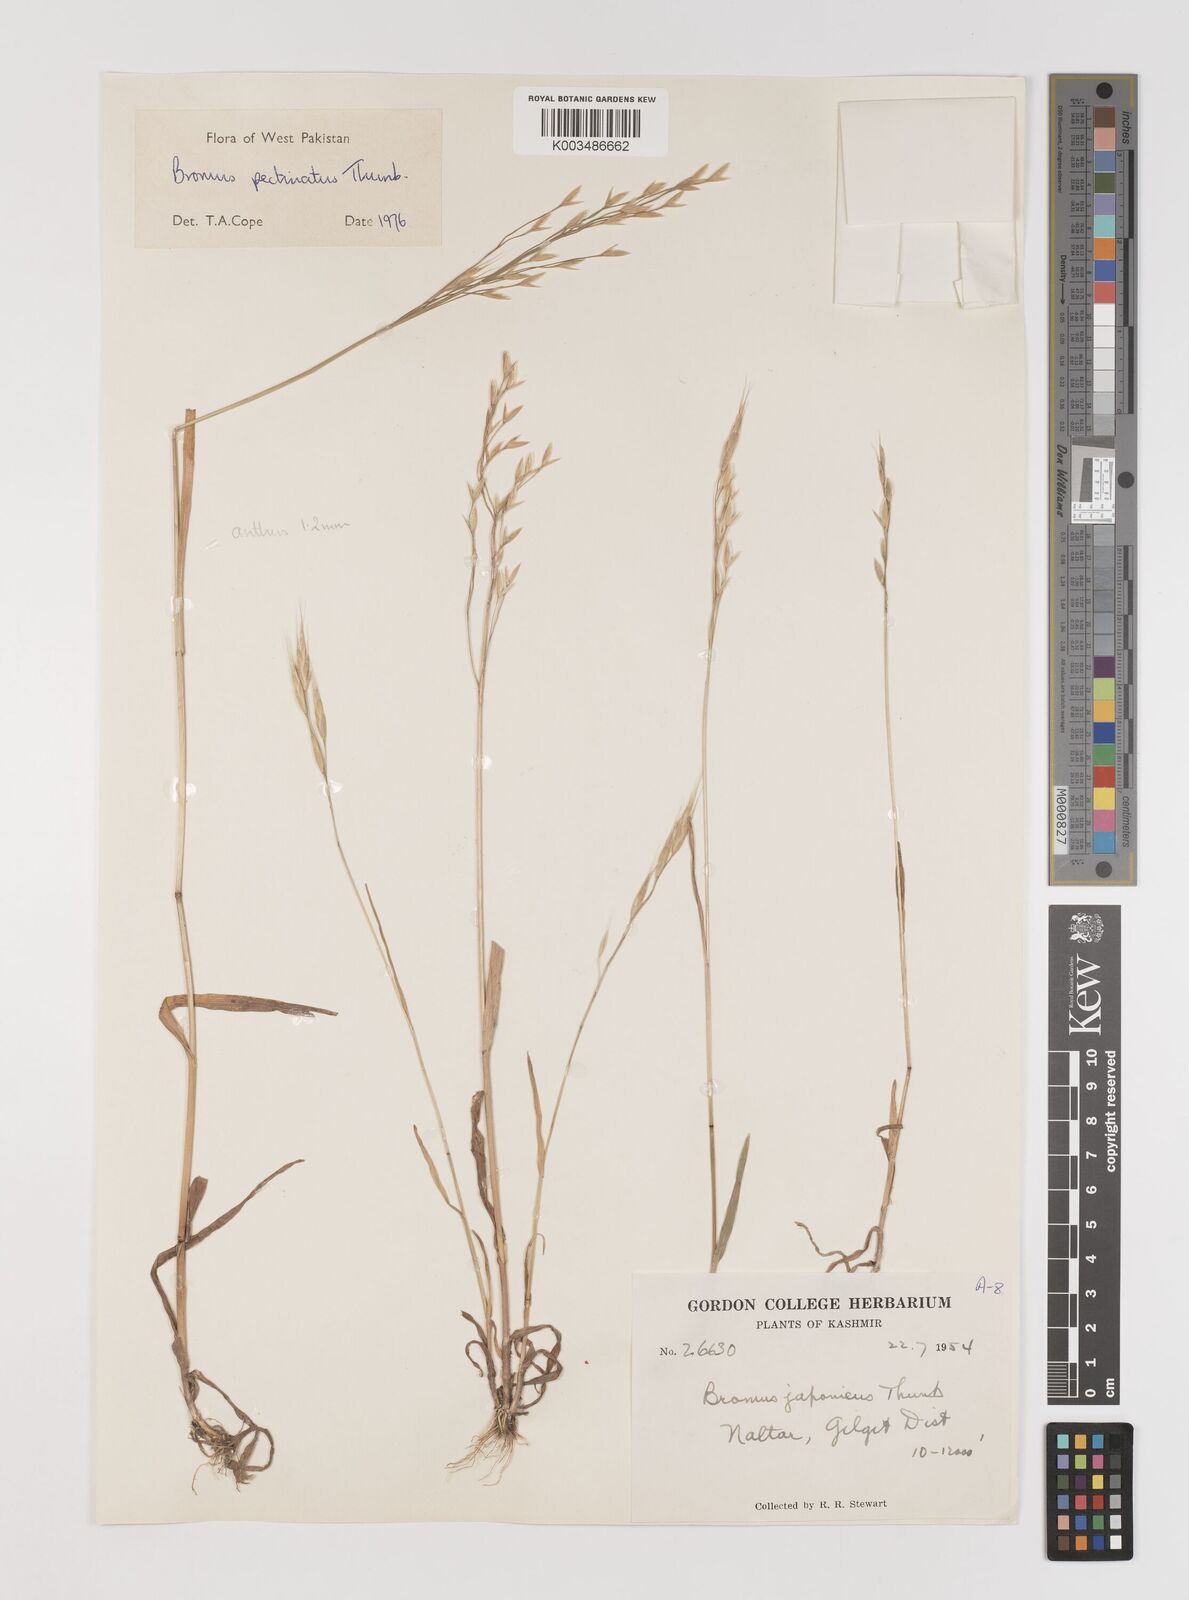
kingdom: Plantae
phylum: Tracheophyta
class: Liliopsida
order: Poales
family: Poaceae
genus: Bromus
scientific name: Bromus pectinatus
